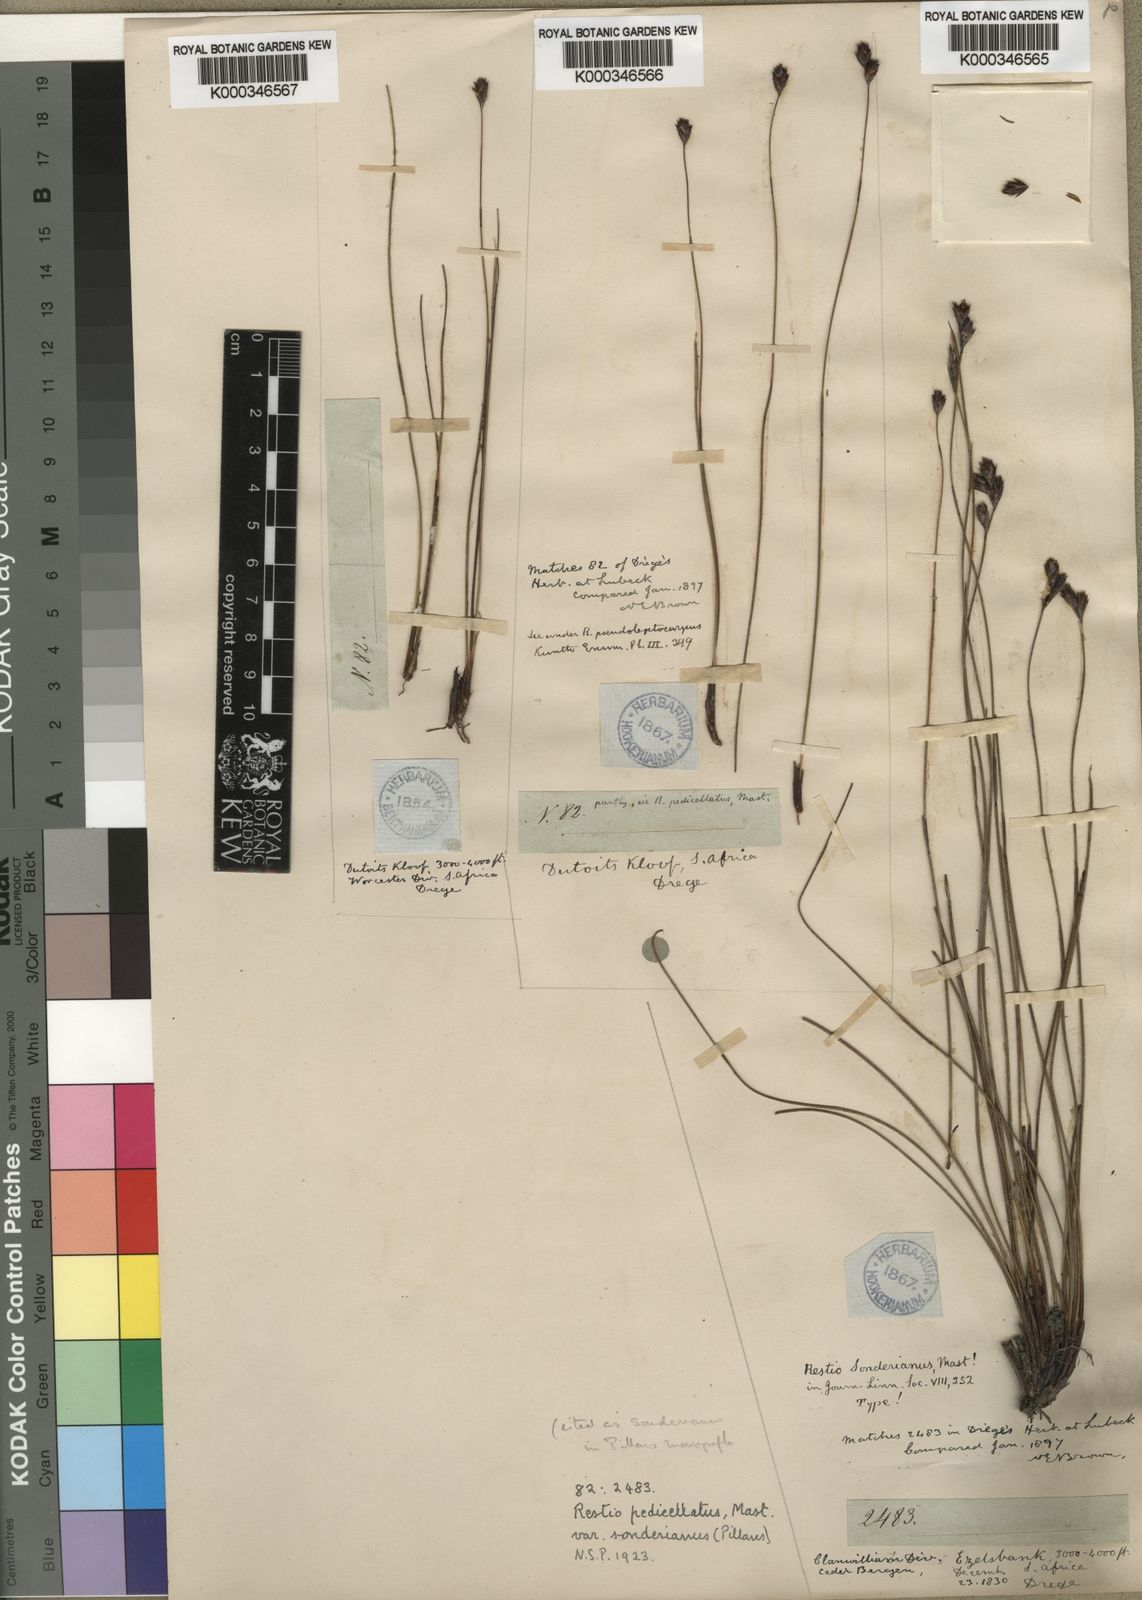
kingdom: Plantae
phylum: Tracheophyta
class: Liliopsida
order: Poales
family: Restionaceae
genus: Restio
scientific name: Restio pedicellatus
